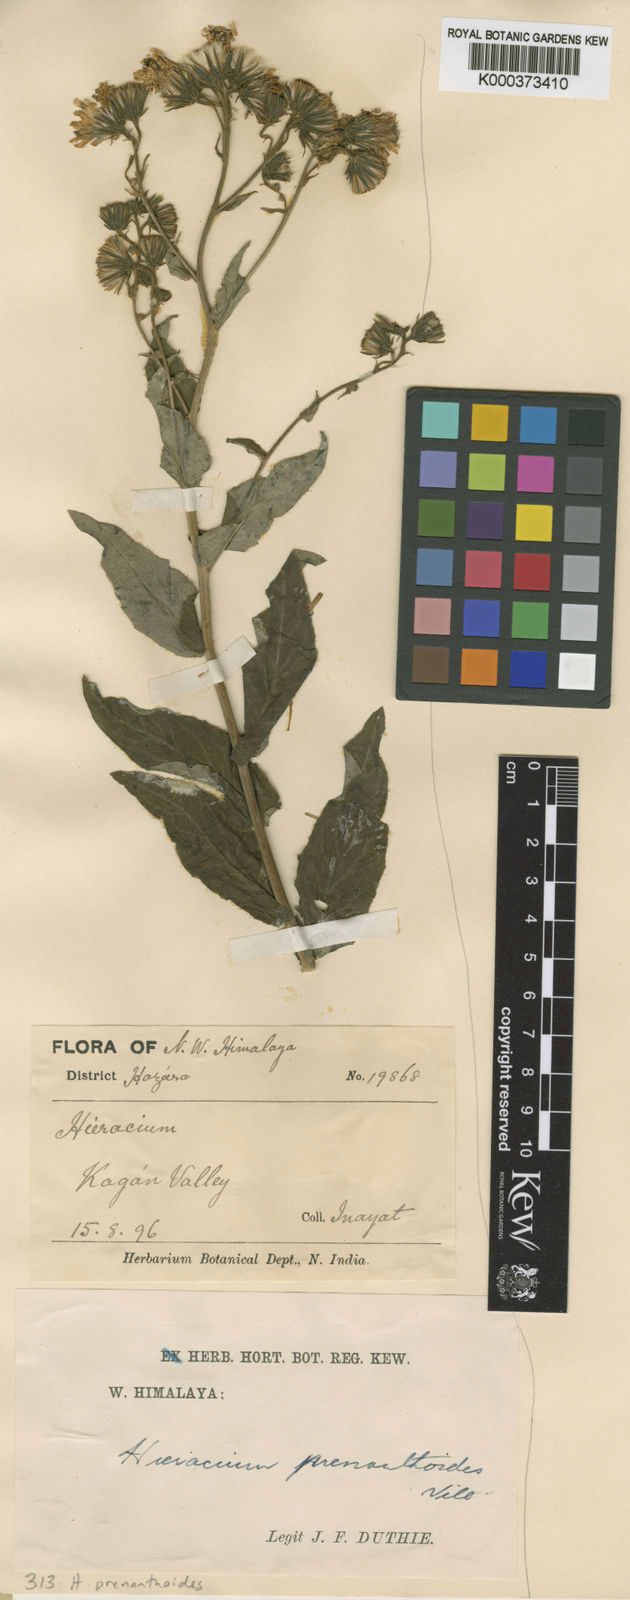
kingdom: Plantae
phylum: Tracheophyta
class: Magnoliopsida
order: Asterales
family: Asteraceae
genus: Hieracium
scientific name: Hieracium prenanthoides
